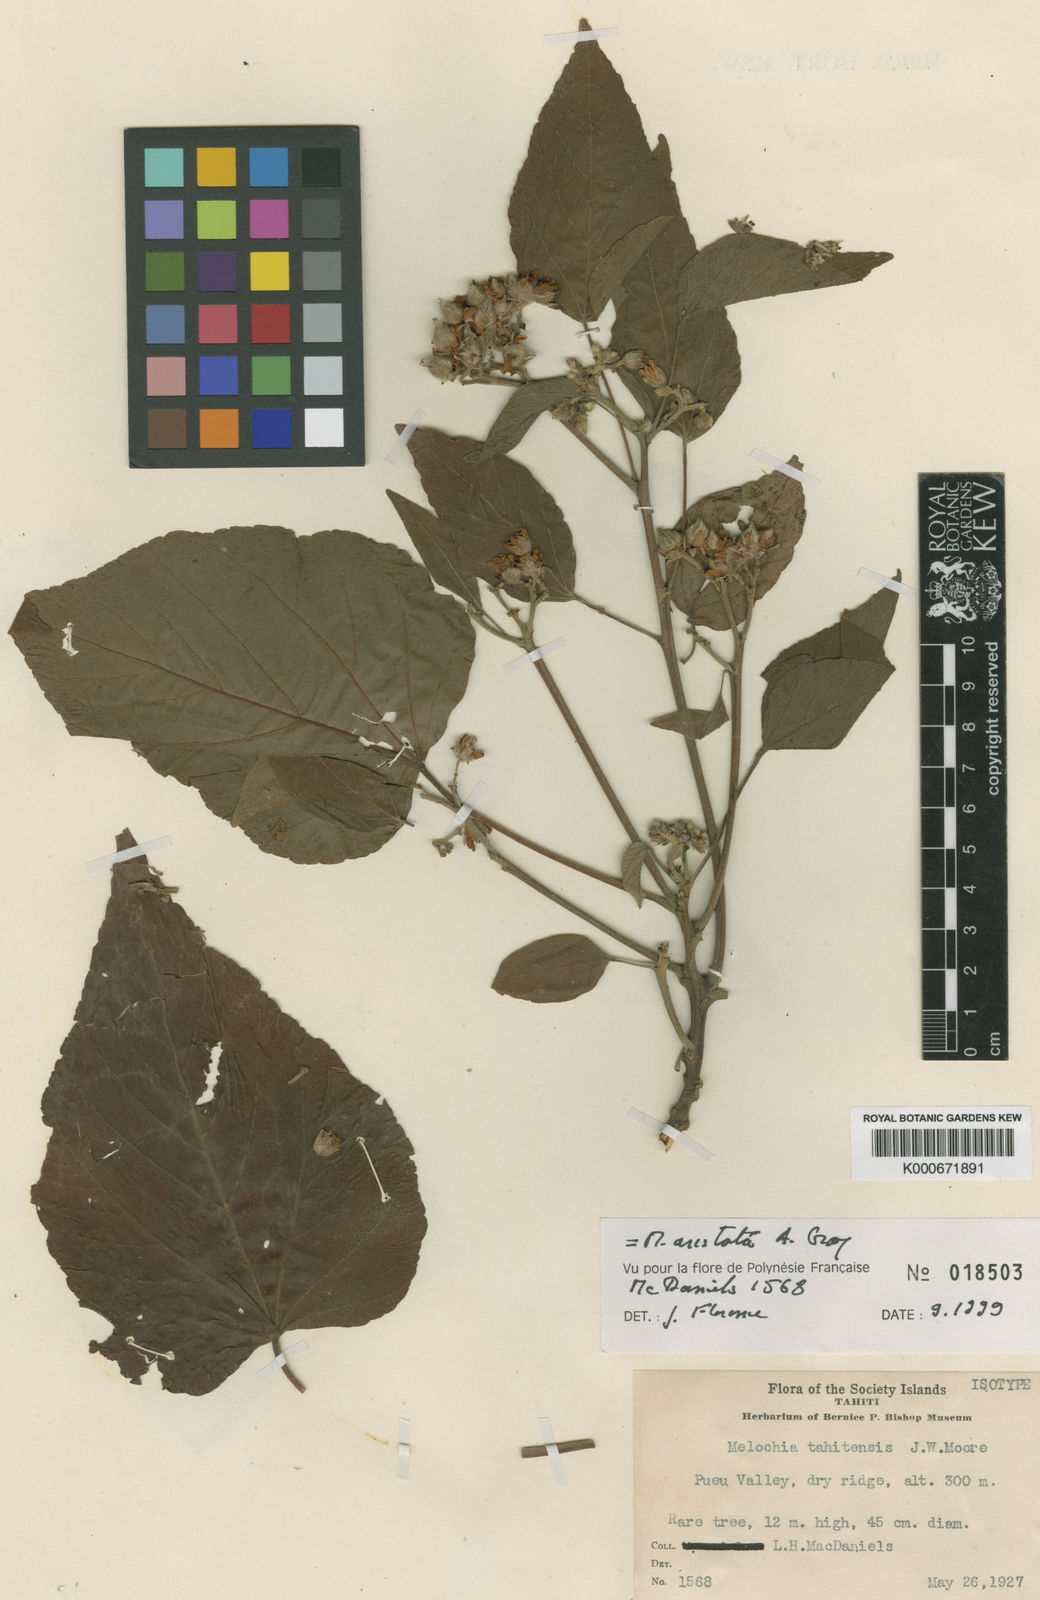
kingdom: Plantae
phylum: Tracheophyta
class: Magnoliopsida
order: Malvales
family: Malvaceae
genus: Melochia
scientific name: Melochia aristata
